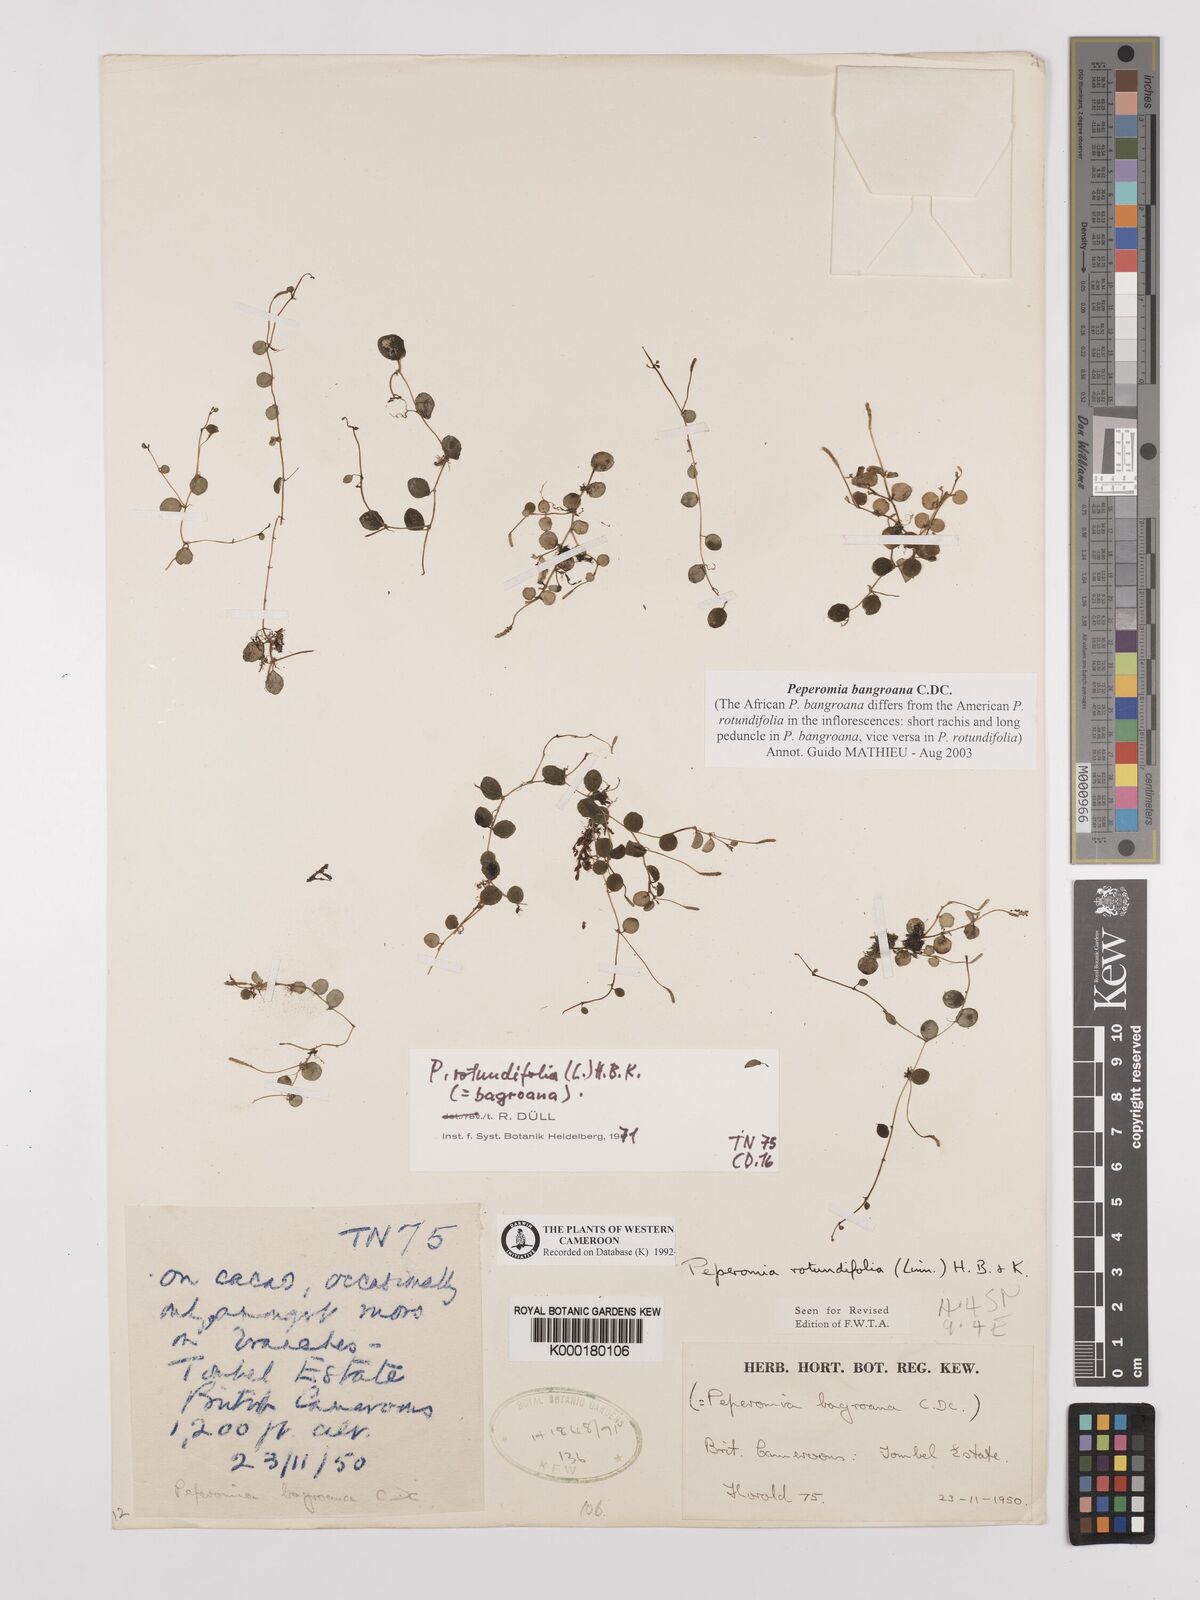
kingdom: Plantae
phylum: Tracheophyta
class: Magnoliopsida
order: Piperales
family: Piperaceae
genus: Peperomia
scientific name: Peperomia bangroana
